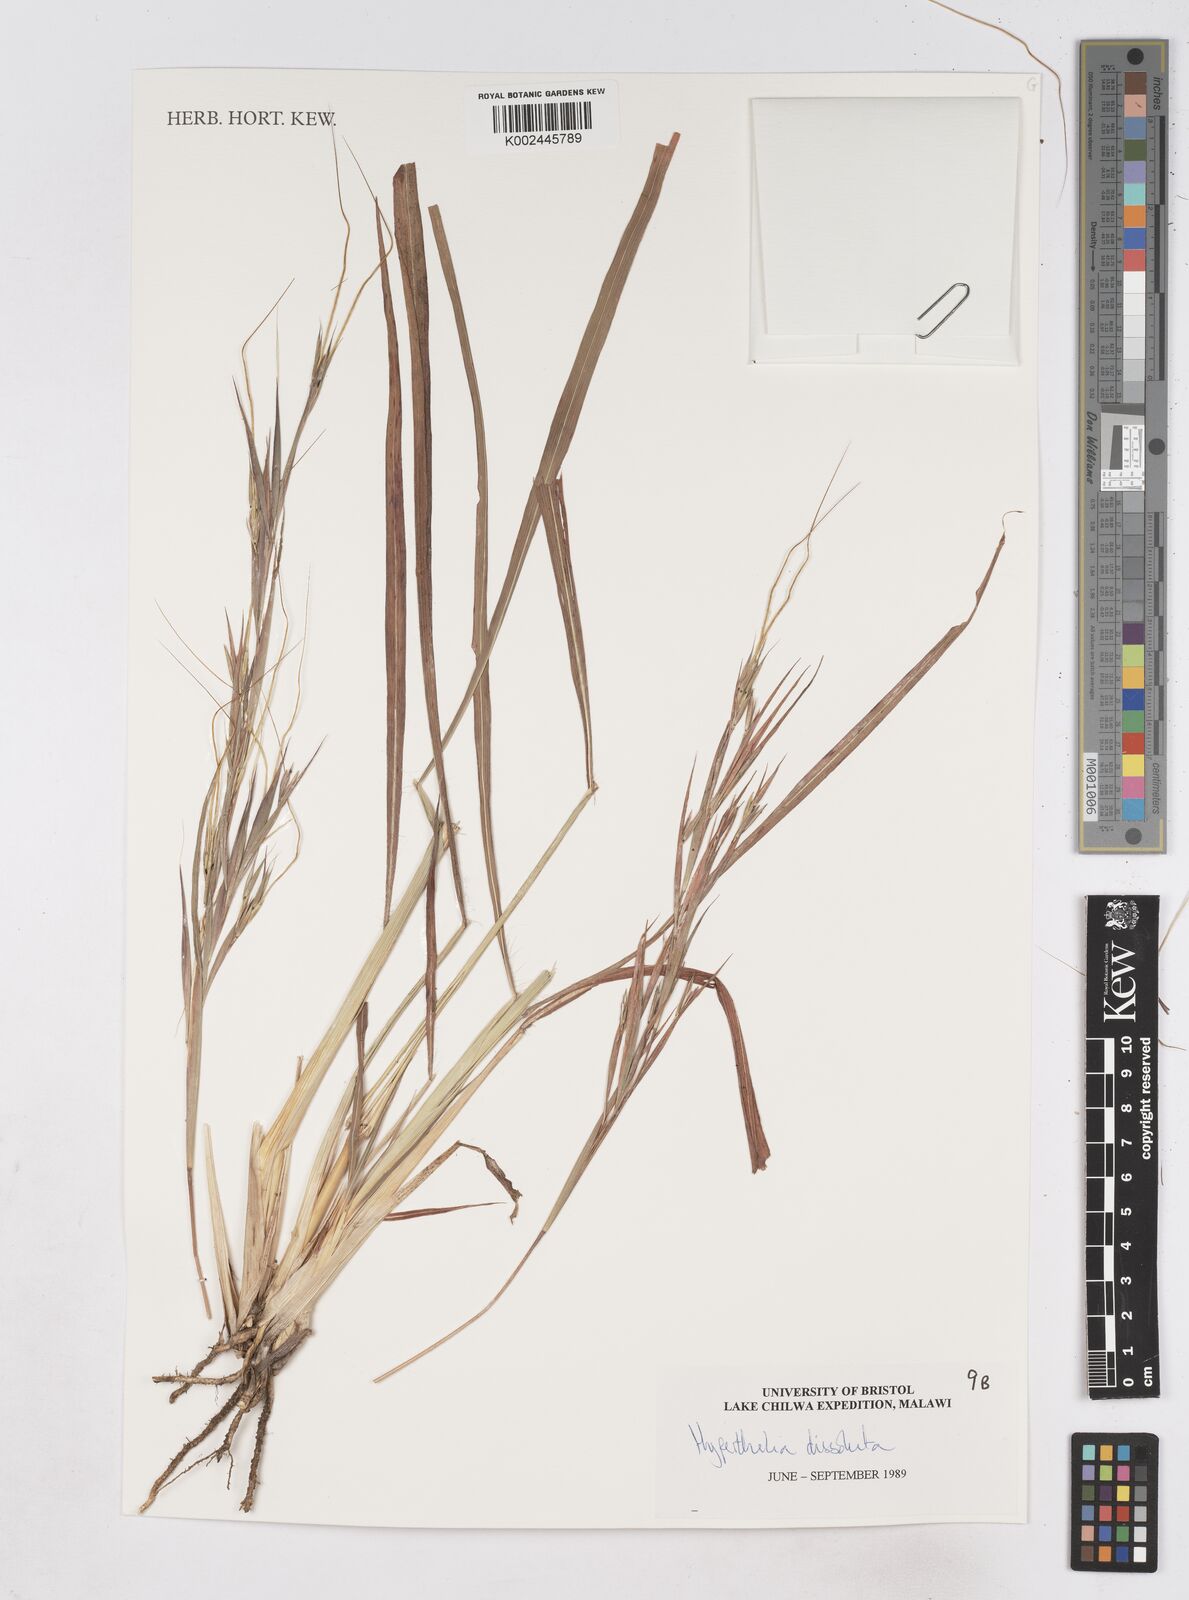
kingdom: Plantae
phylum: Tracheophyta
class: Liliopsida
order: Poales
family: Poaceae
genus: Hyperthelia
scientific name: Hyperthelia dissoluta
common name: Yellow thatching grass
